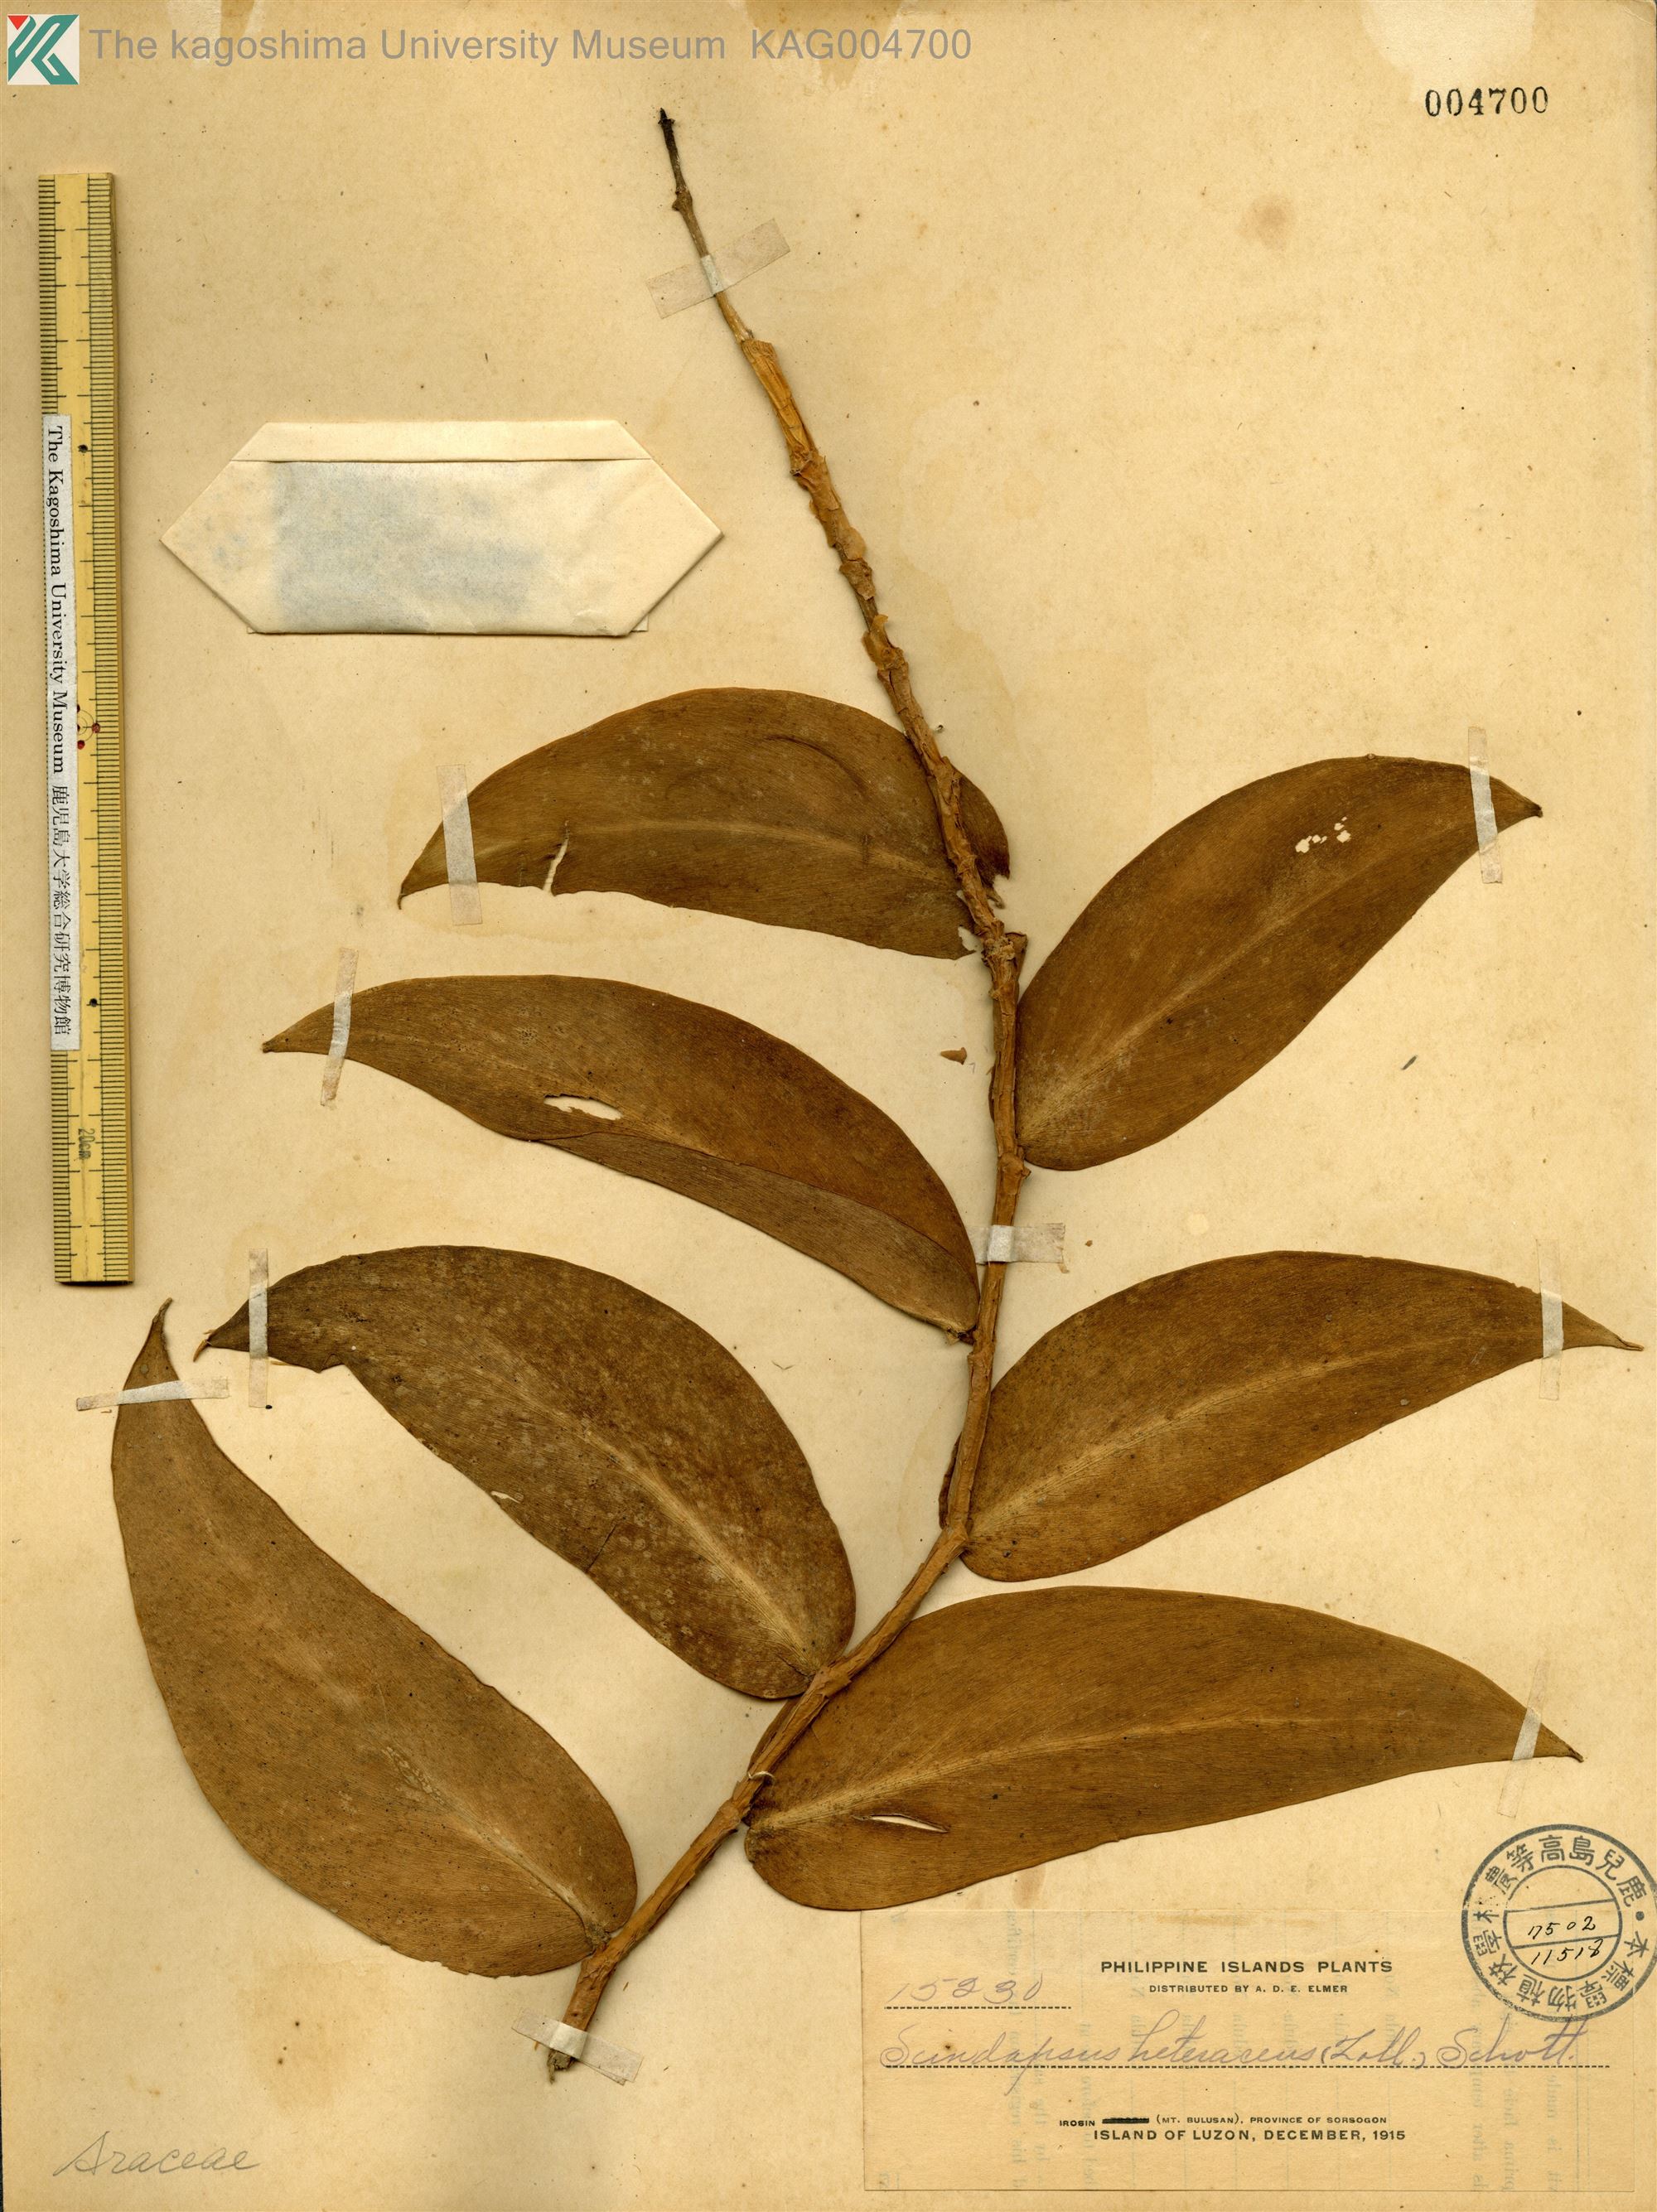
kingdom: Plantae
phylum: Tracheophyta
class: Liliopsida
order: Alismatales
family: Araceae
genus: Scindapsus
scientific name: Scindapsus hederaceus
